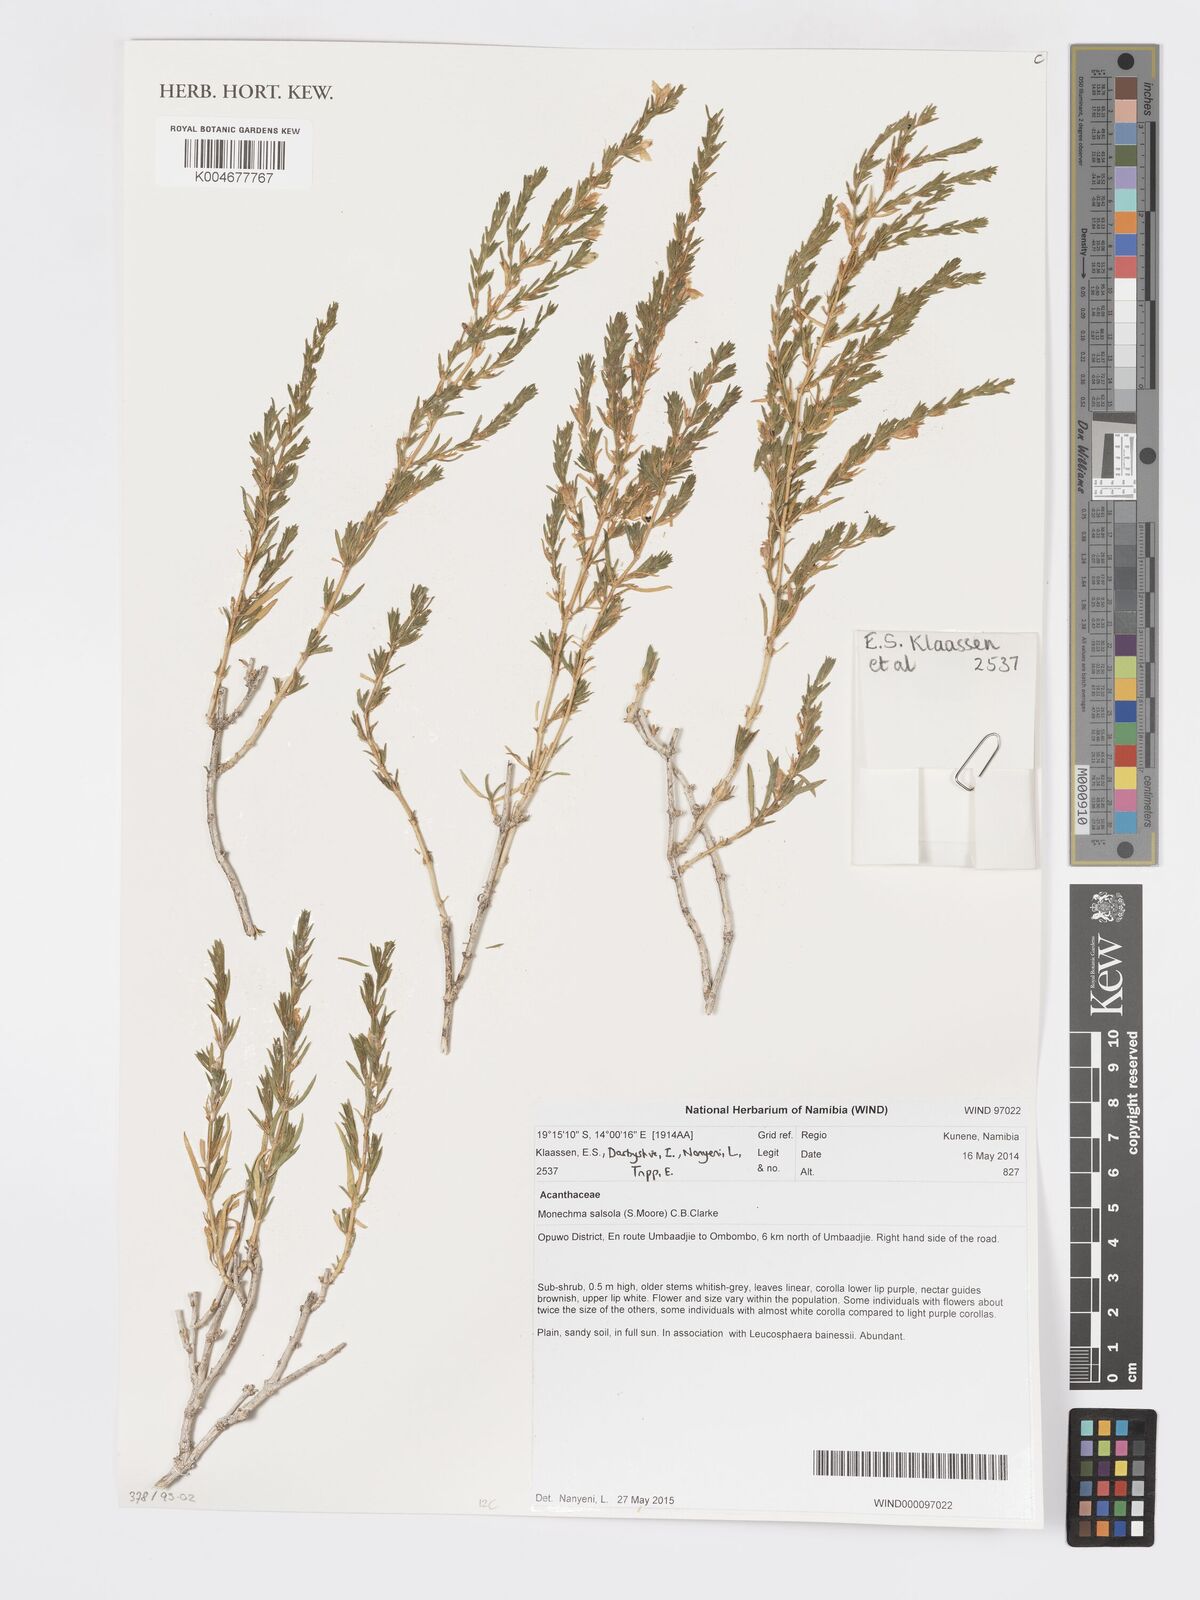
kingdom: Plantae
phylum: Tracheophyta
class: Magnoliopsida
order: Lamiales
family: Acanthaceae
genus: Pogonospermum
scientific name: Pogonospermum
